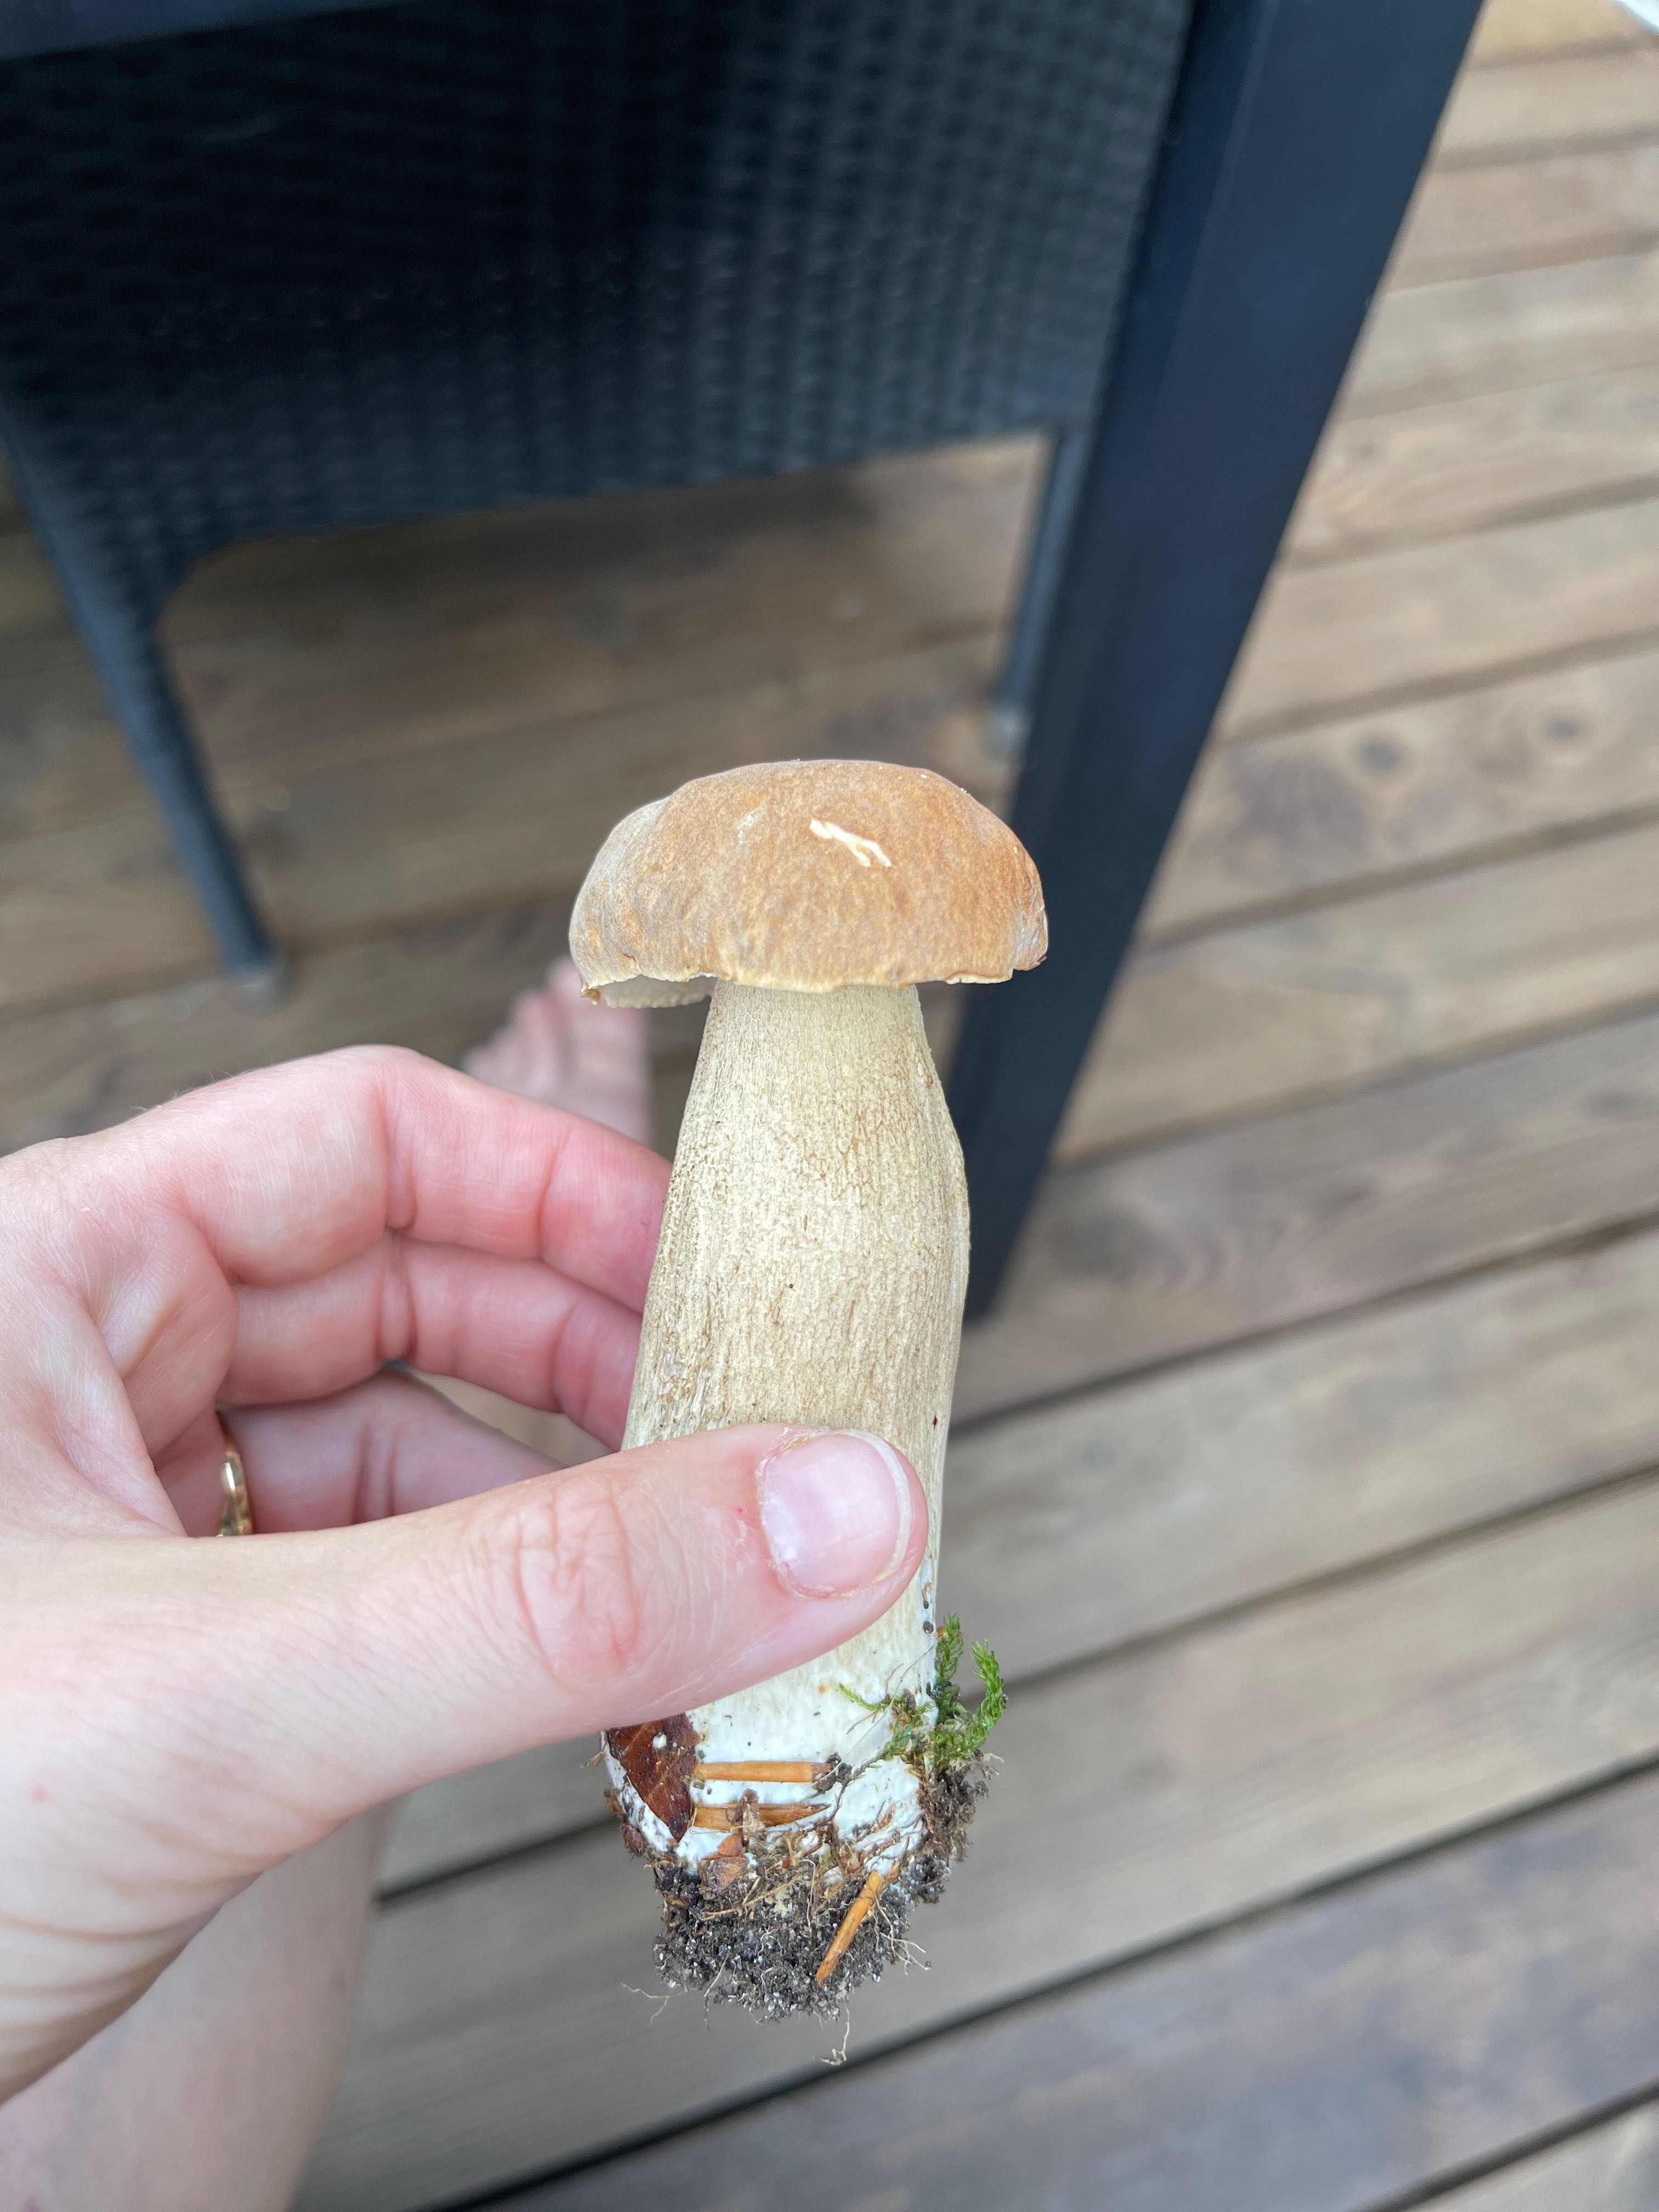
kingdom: Fungi
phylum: Basidiomycota
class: Agaricomycetes
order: Boletales
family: Boletaceae
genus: Boletus
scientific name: Boletus reticulatus
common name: sommer-rørhat
